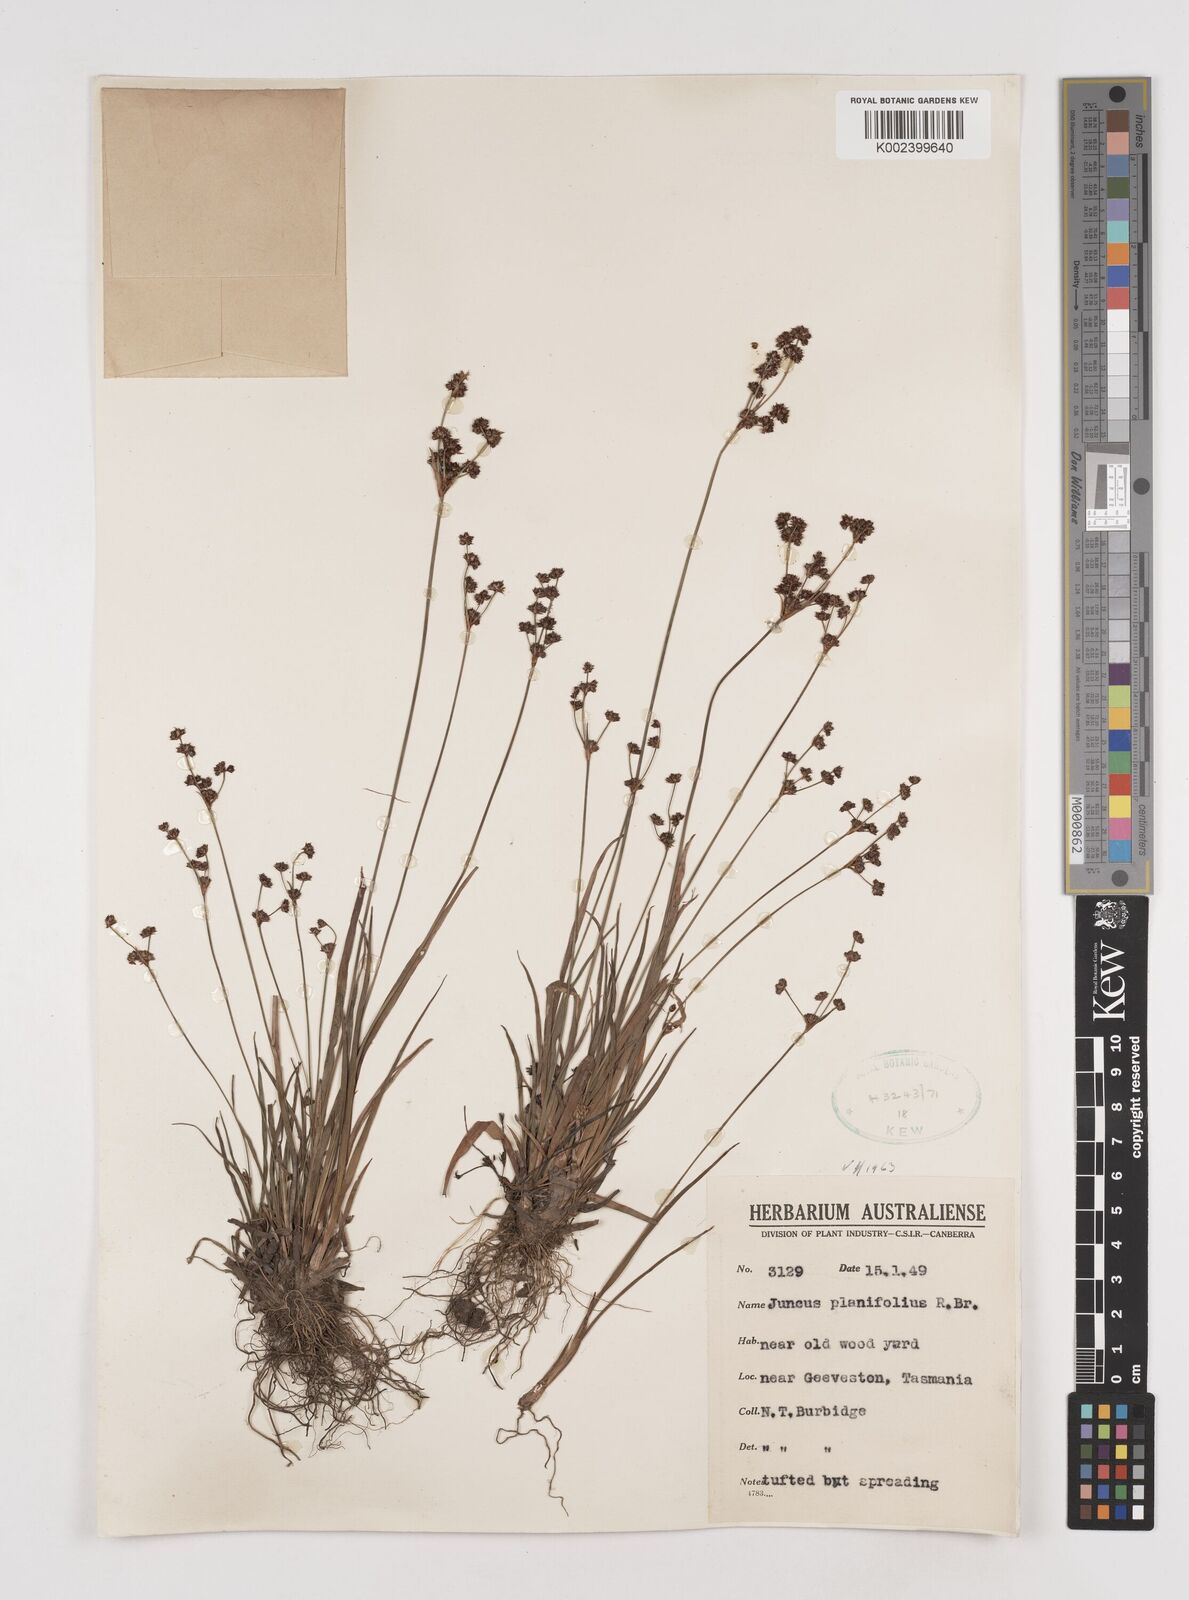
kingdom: Plantae
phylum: Tracheophyta
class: Liliopsida
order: Poales
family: Juncaceae
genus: Juncus
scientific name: Juncus planifolius
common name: Broadleaf rush
